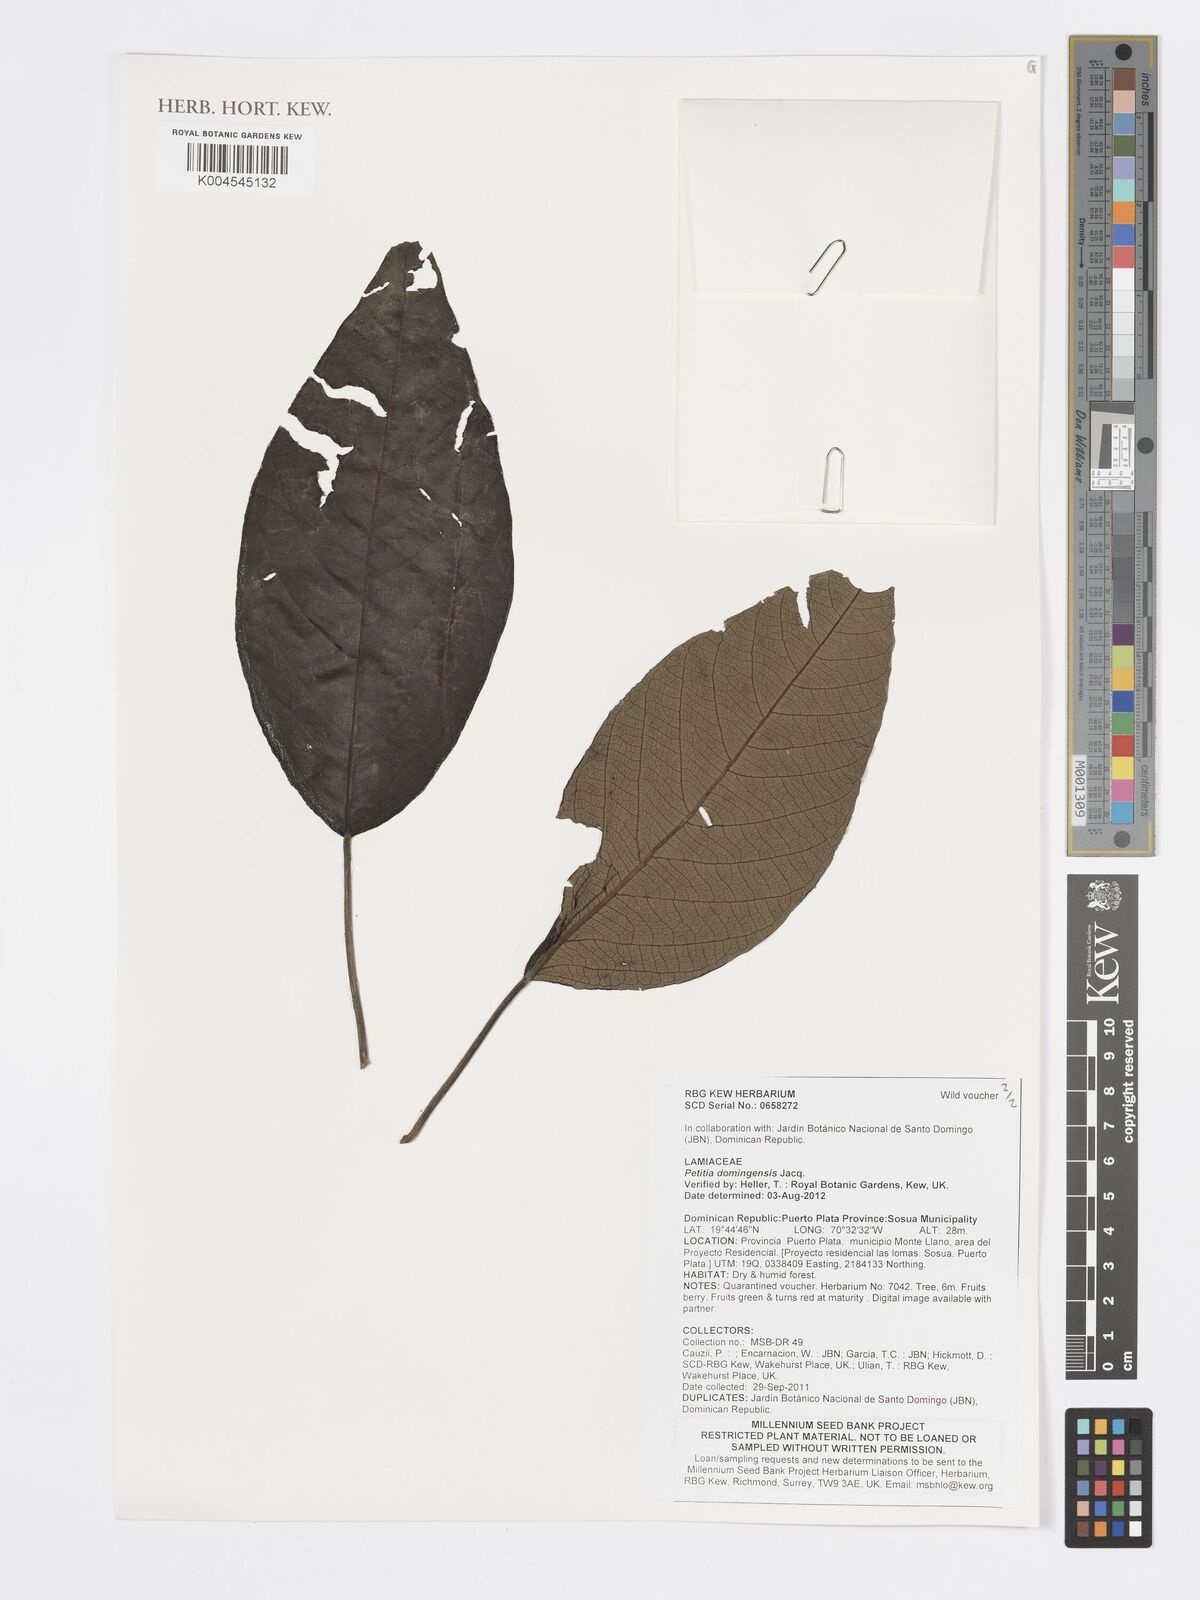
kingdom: Plantae
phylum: Tracheophyta
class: Magnoliopsida
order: Lamiales
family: Lamiaceae
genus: Petitia
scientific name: Petitia domingensis
